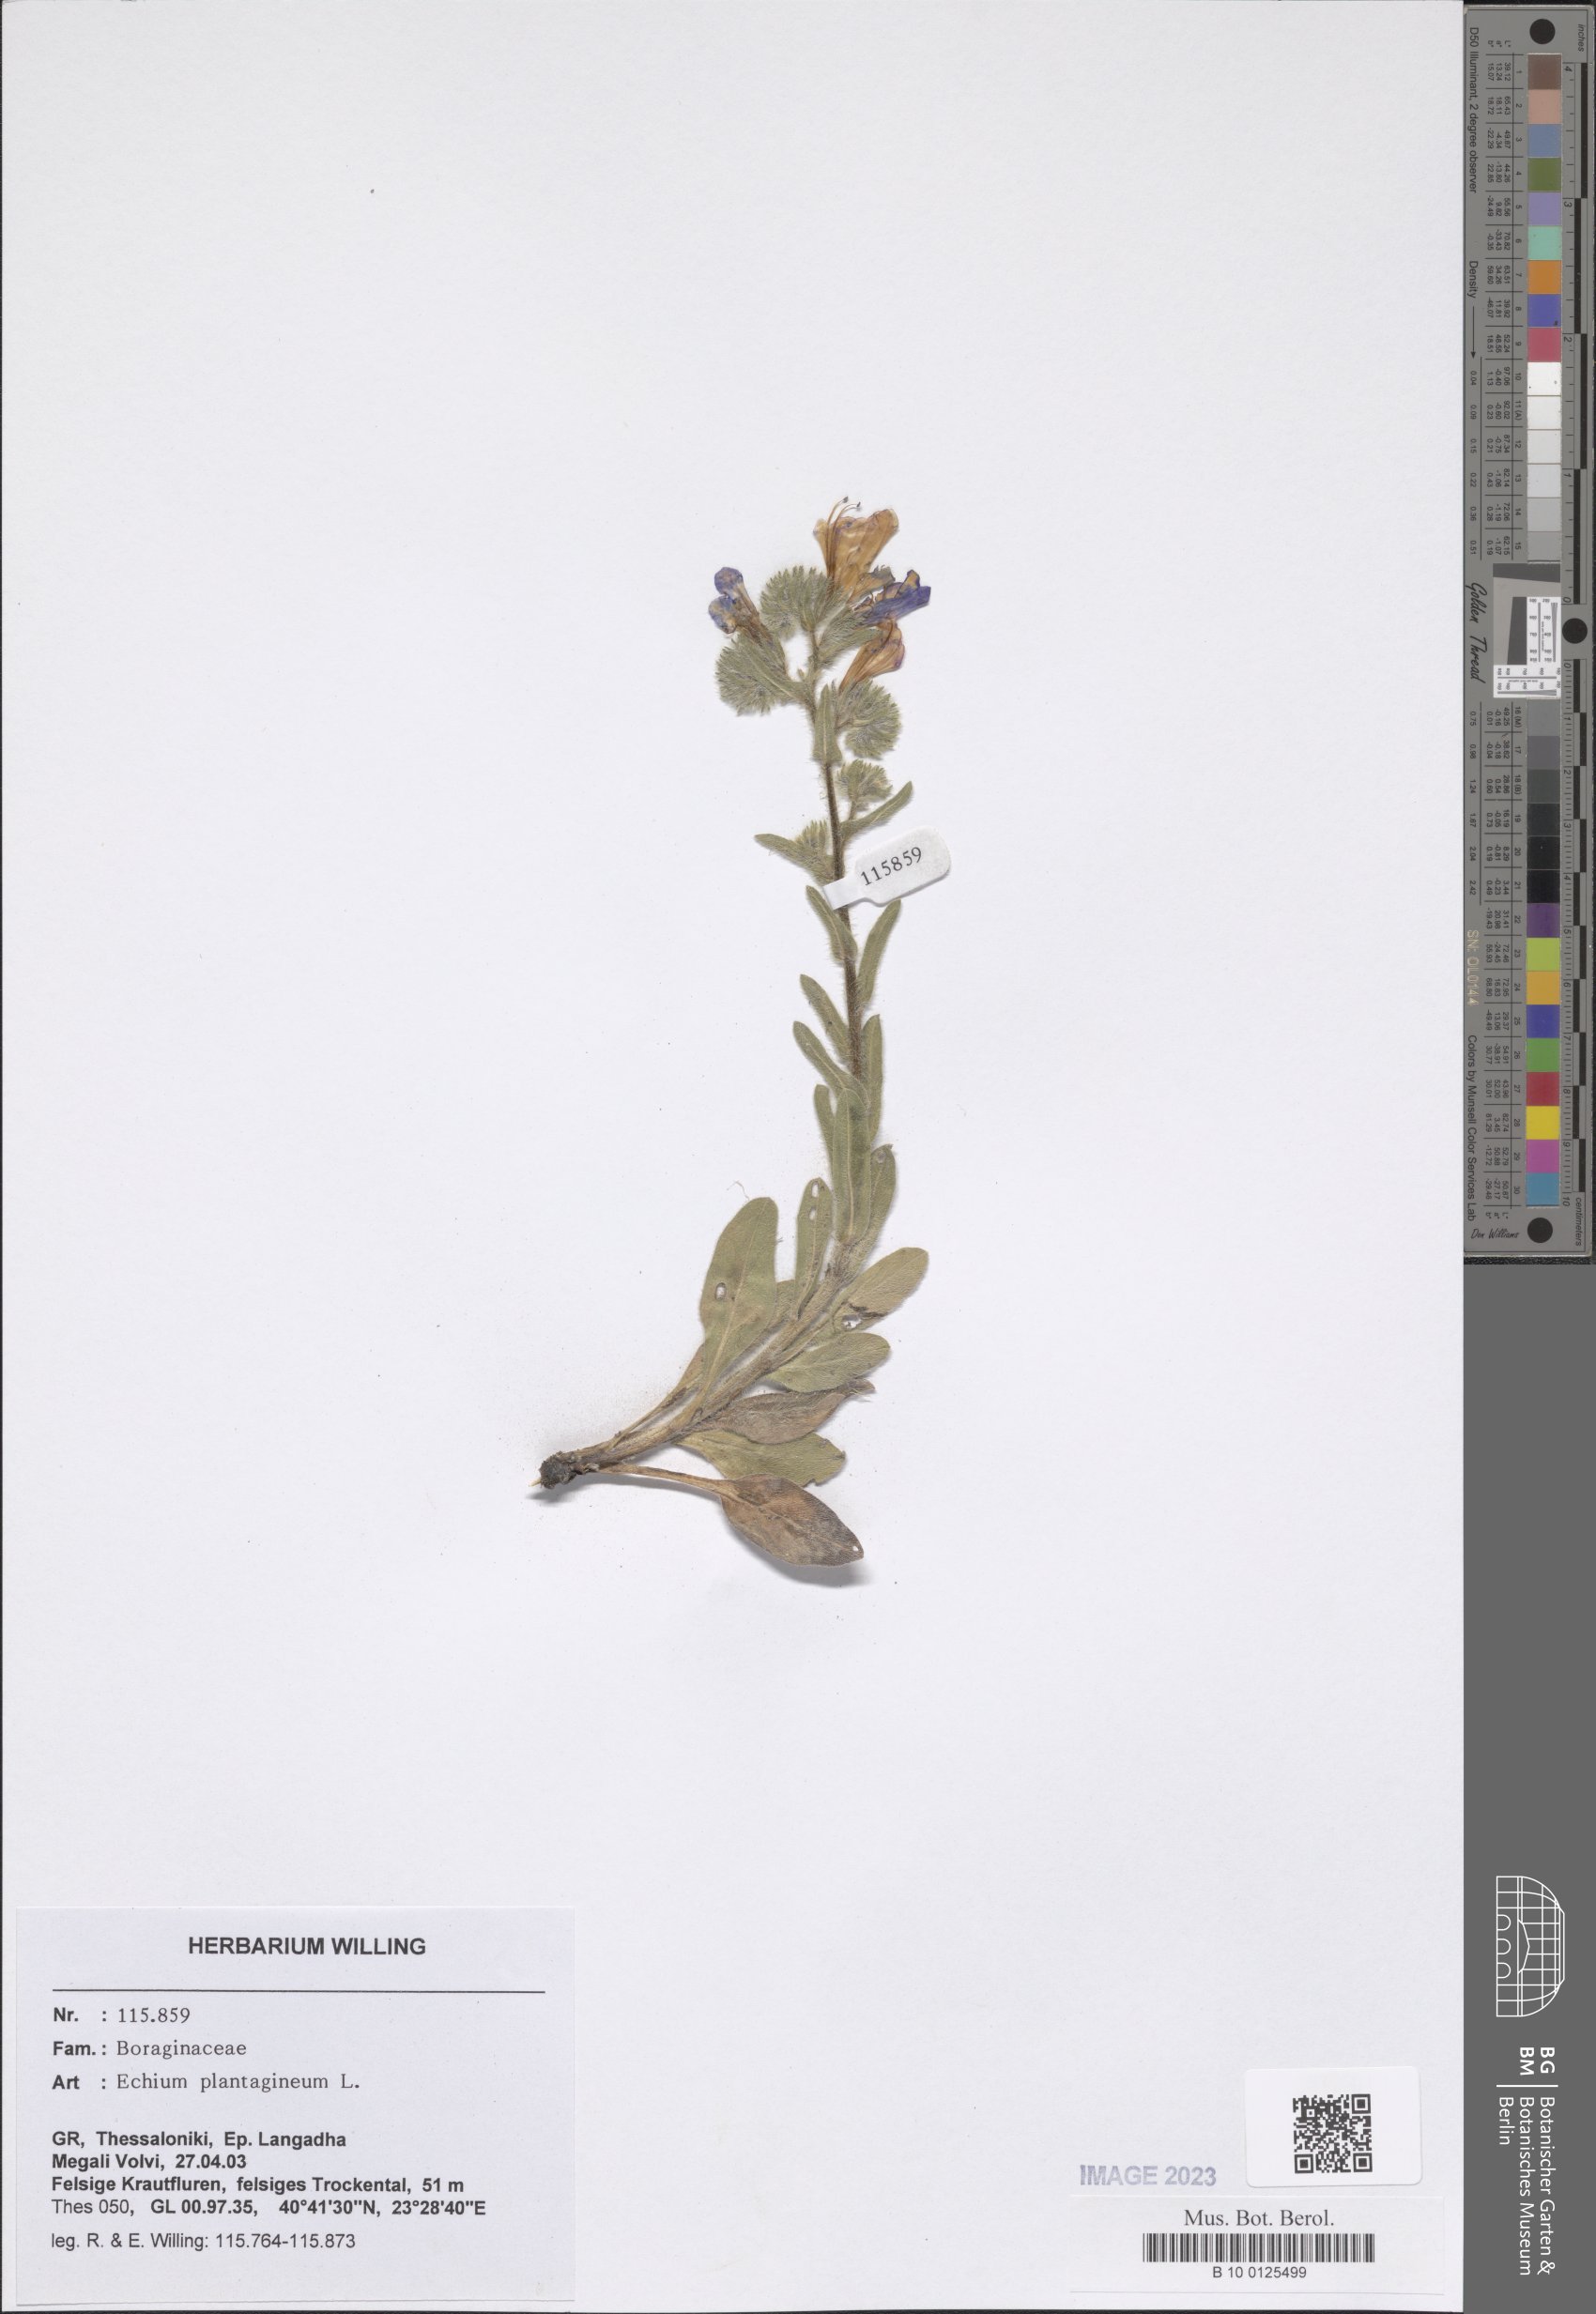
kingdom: Plantae
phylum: Tracheophyta
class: Magnoliopsida
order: Boraginales
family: Boraginaceae
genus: Echium
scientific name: Echium plantagineum
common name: Purple viper's-bugloss
